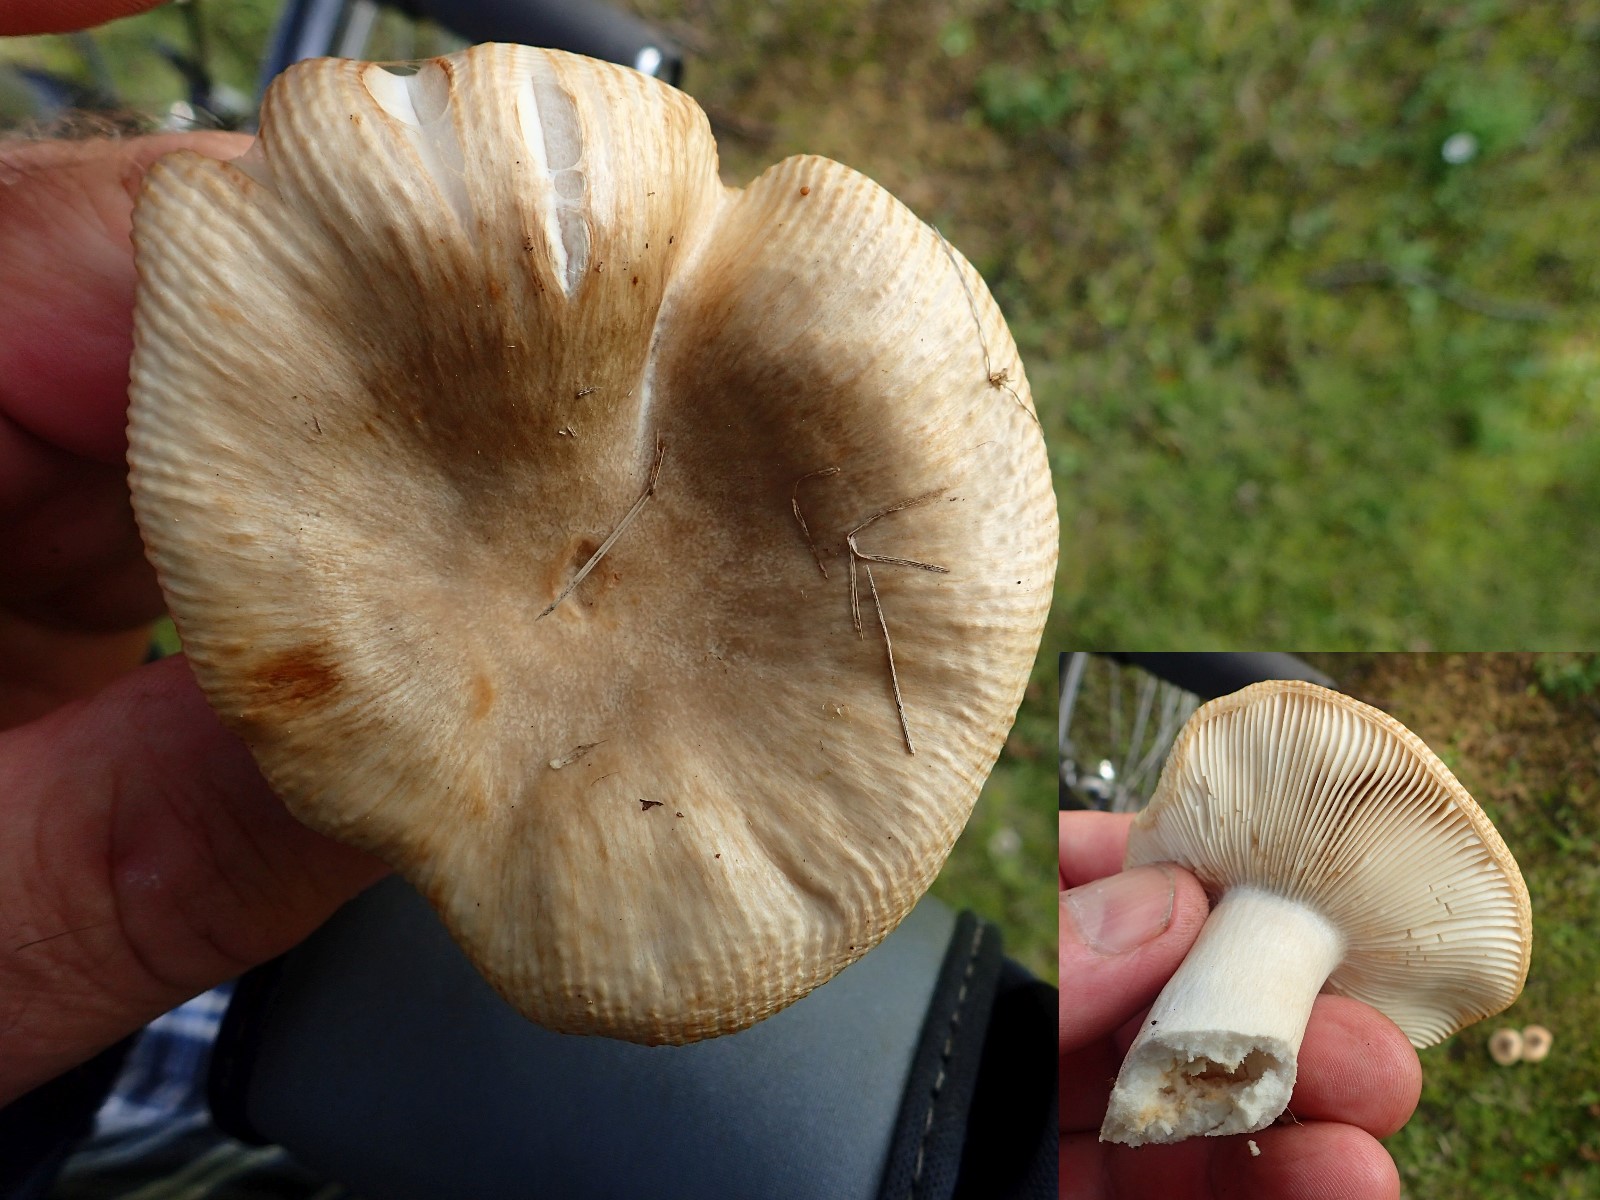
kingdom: Fungi
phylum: Basidiomycota
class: Agaricomycetes
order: Russulales
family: Russulaceae
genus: Russula
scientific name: Russula recondita
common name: mild kam-skørhat
